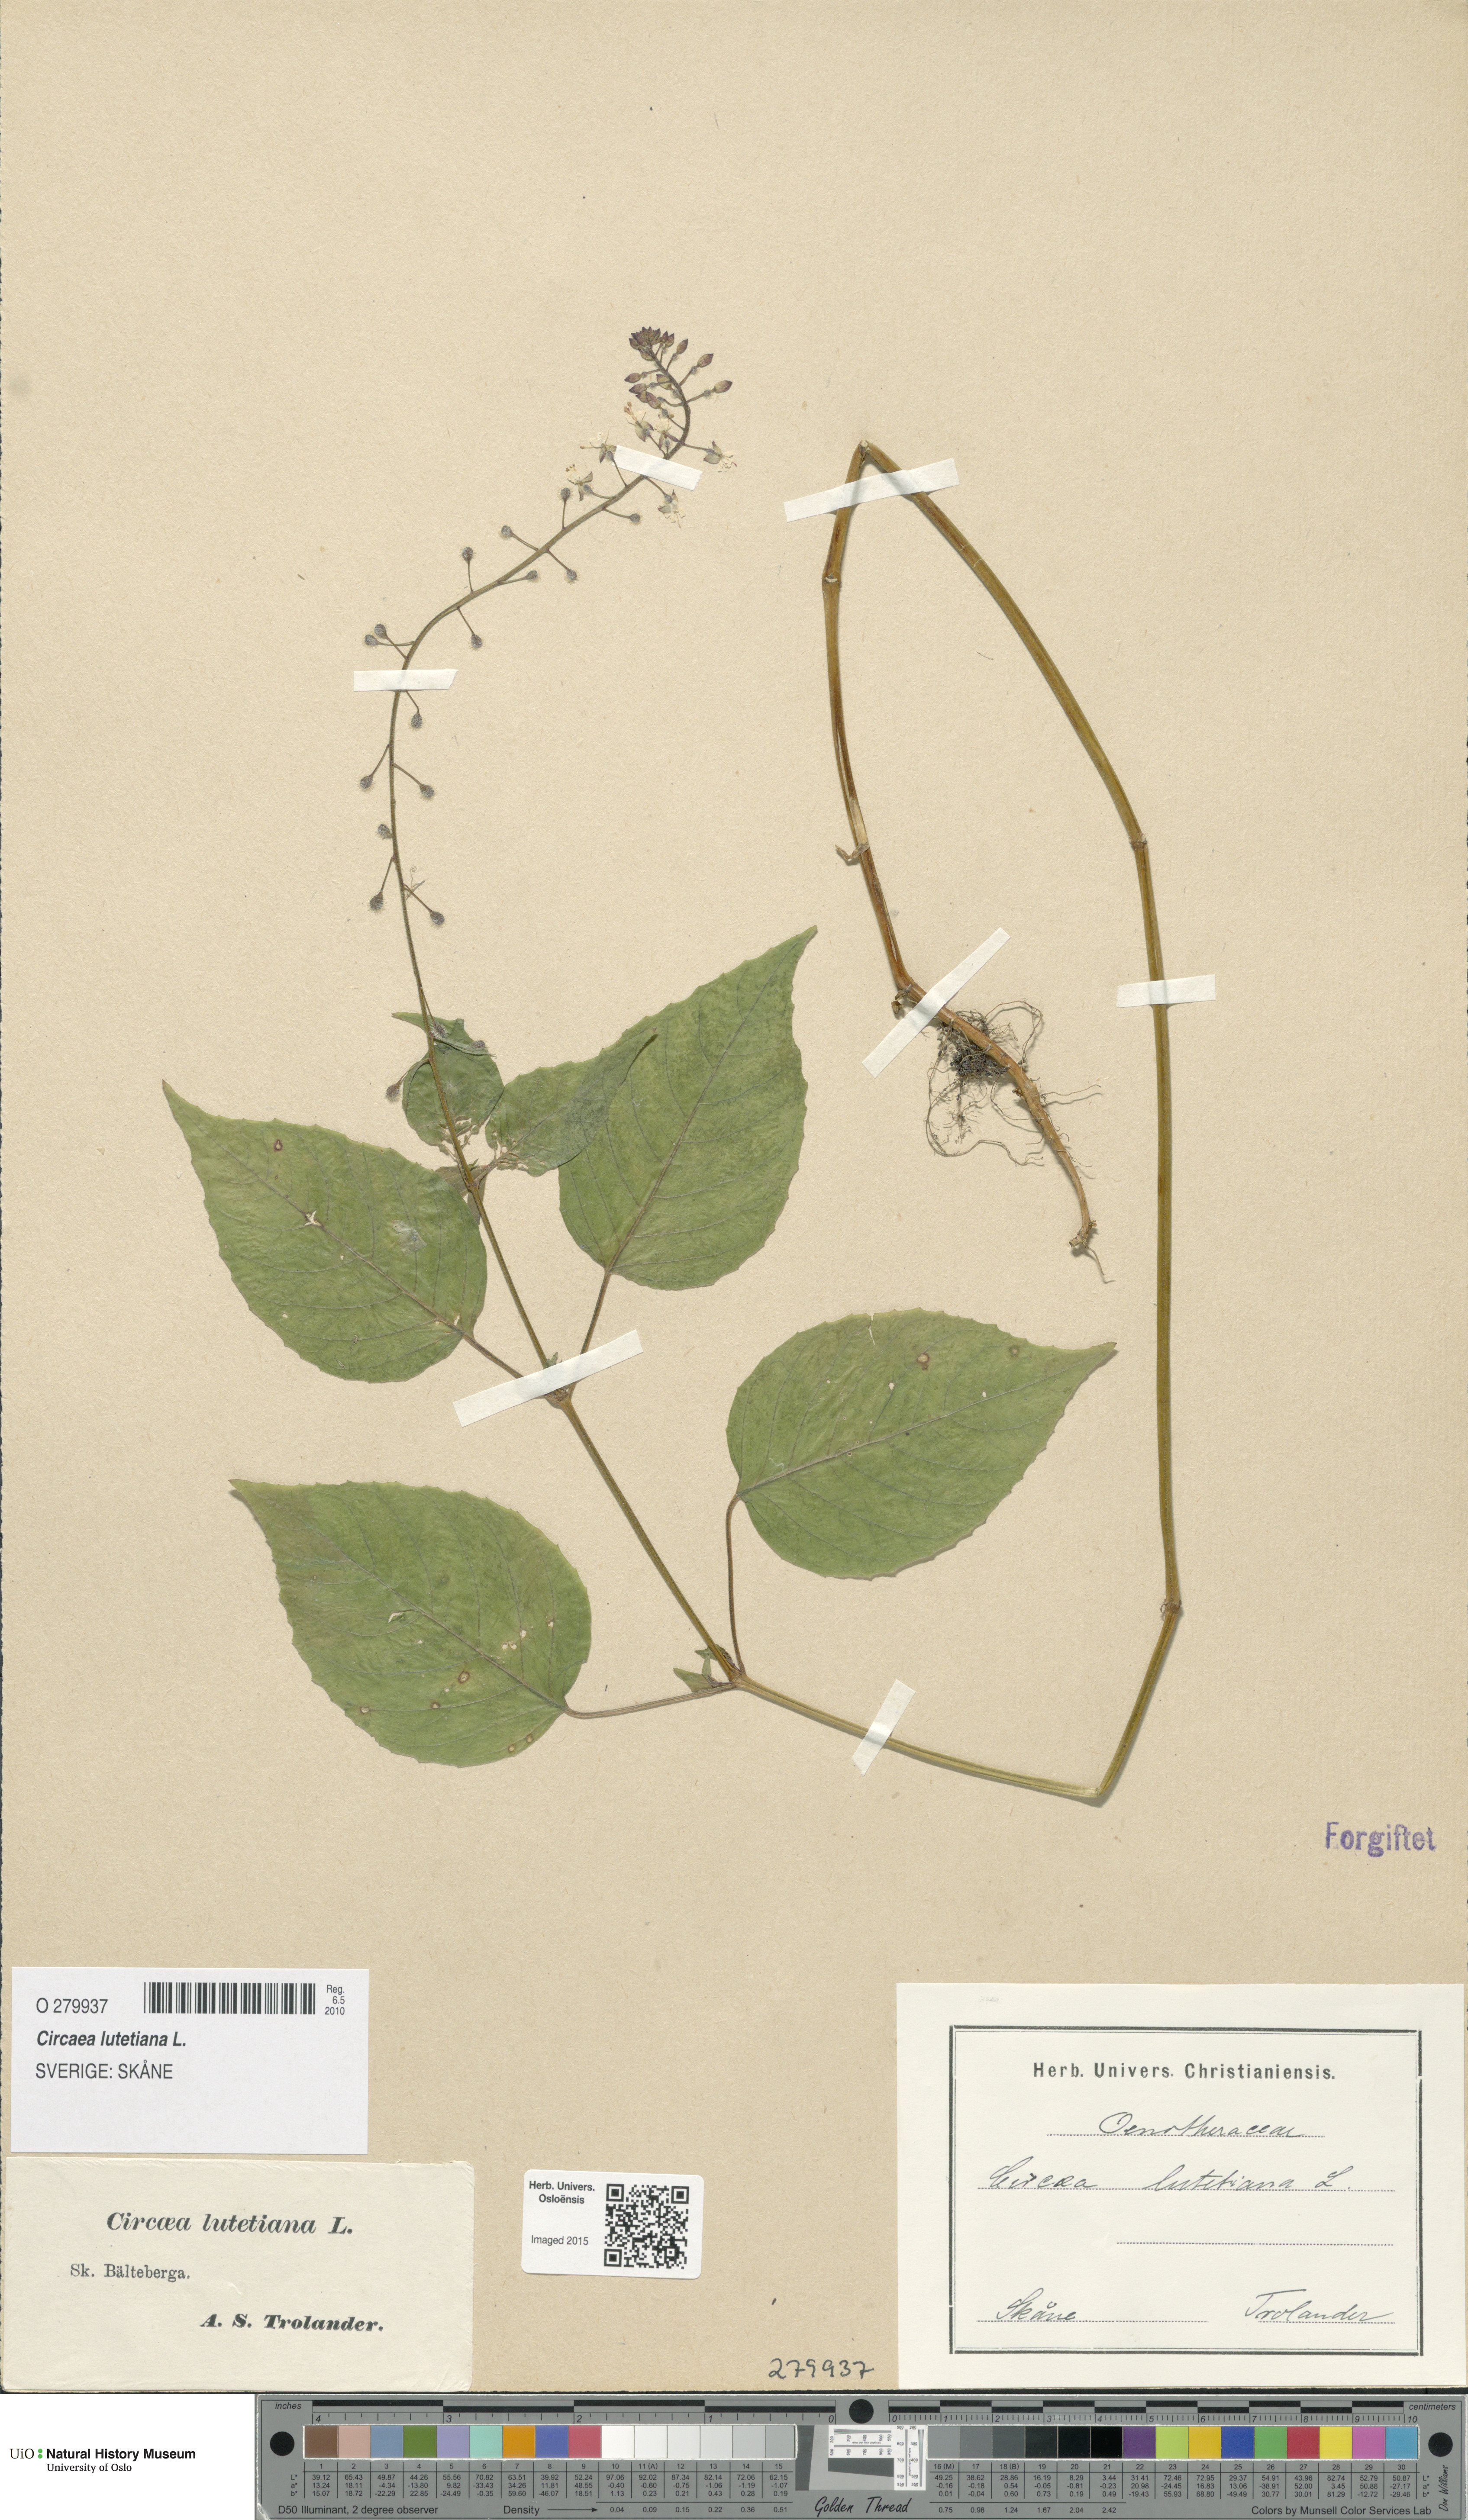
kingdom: Plantae
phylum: Tracheophyta
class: Magnoliopsida
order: Myrtales
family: Onagraceae
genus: Circaea
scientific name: Circaea lutetiana
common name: Enchanter's-nightshade
